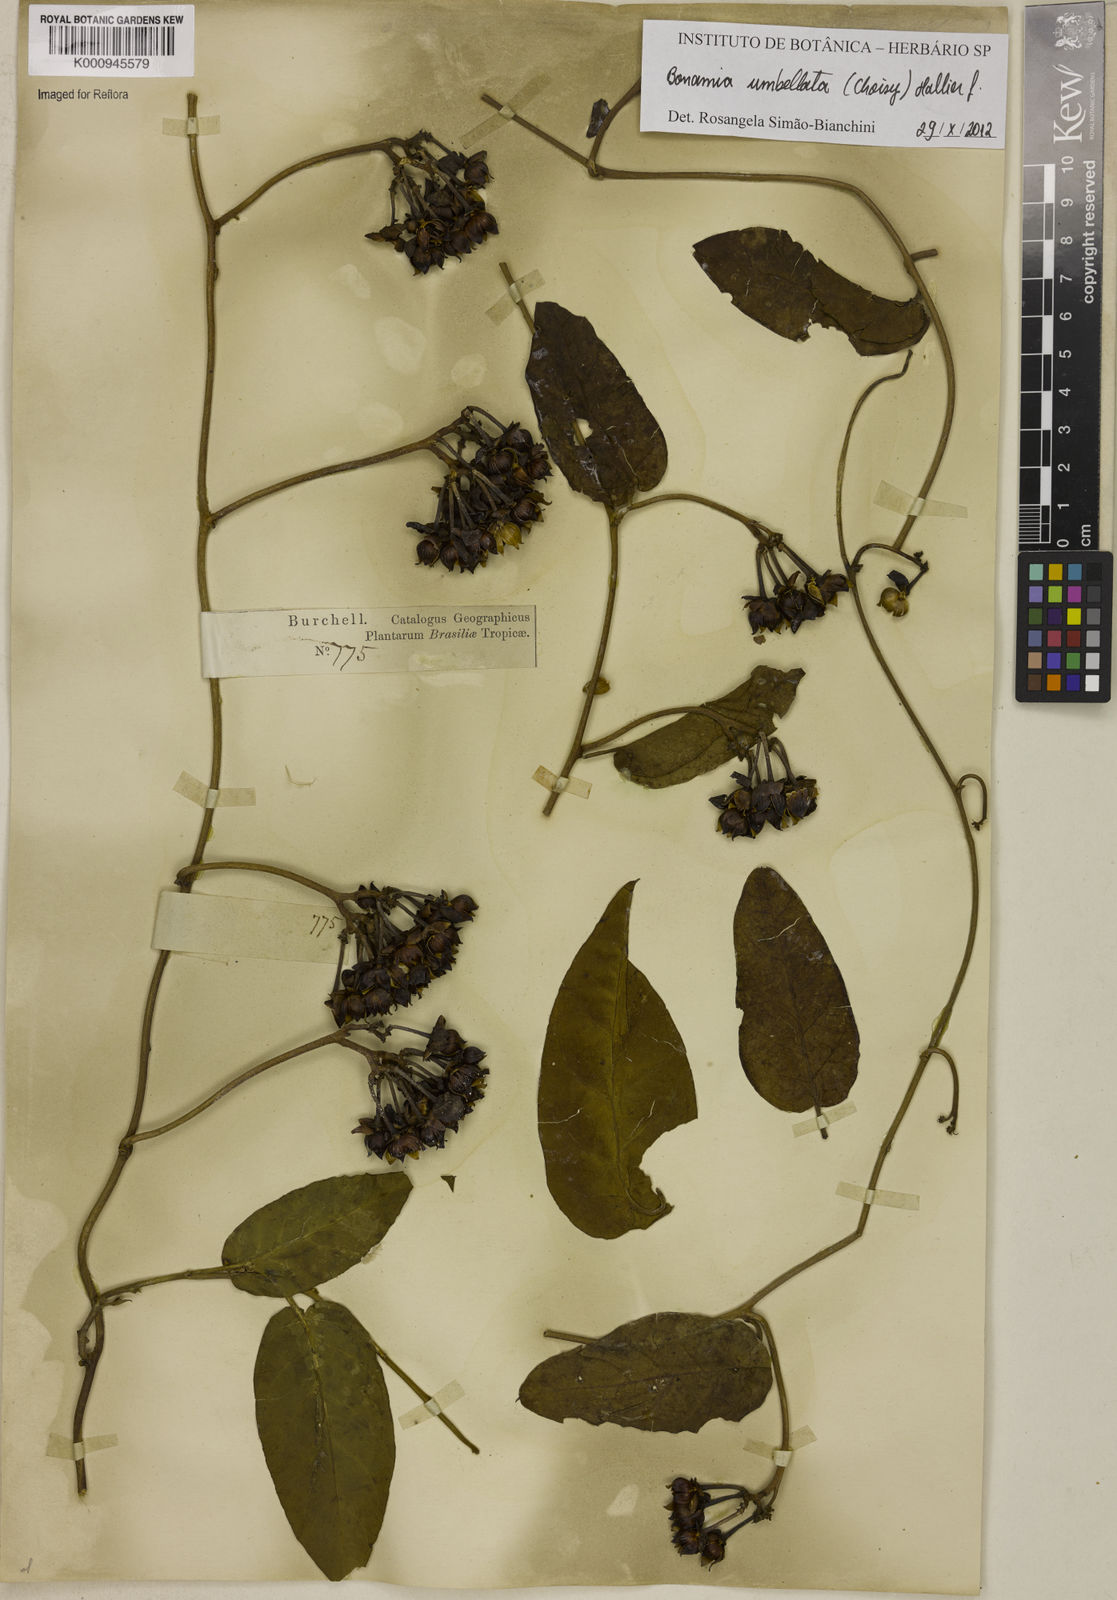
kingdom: Plantae
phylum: Tracheophyta
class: Magnoliopsida
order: Solanales
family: Convolvulaceae
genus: Bonamia
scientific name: Bonamia umbellata
